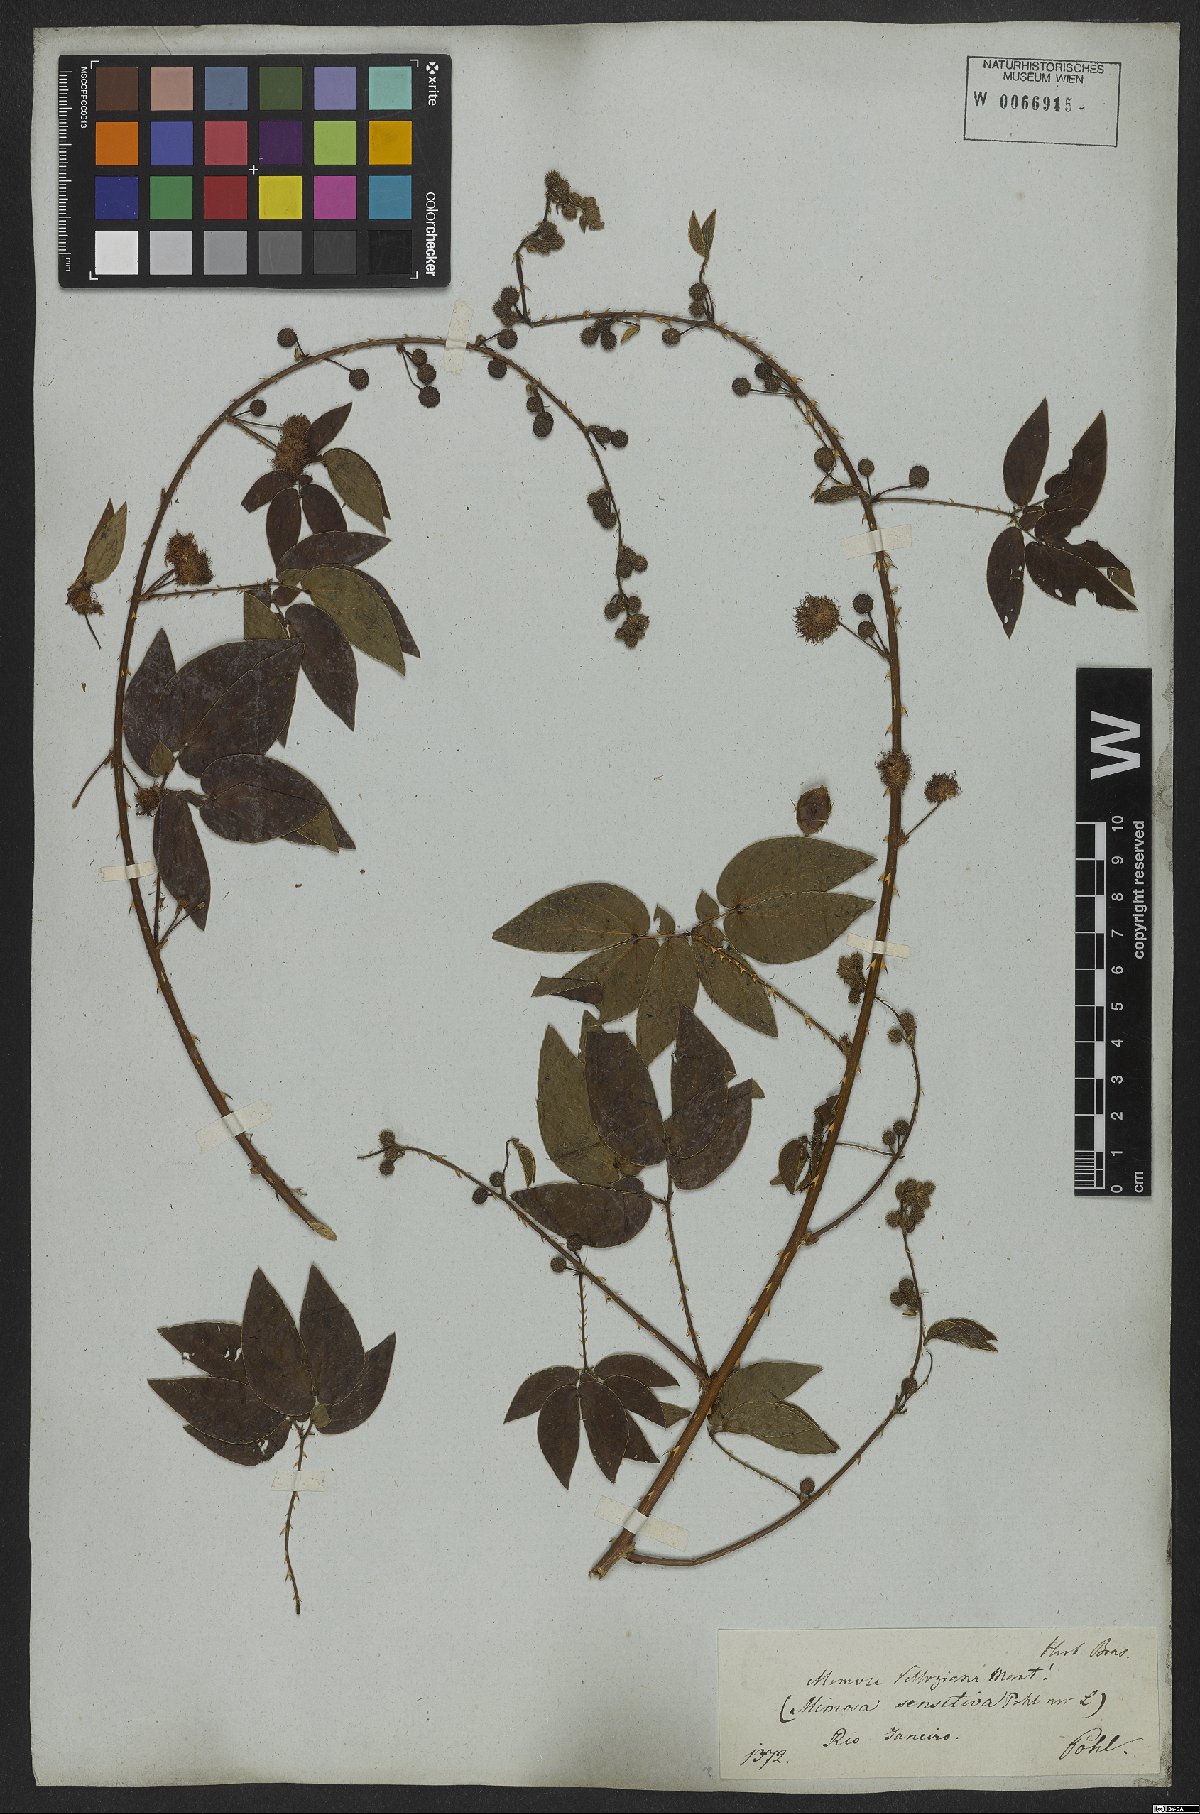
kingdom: Plantae
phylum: Tracheophyta
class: Magnoliopsida
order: Fabales
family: Fabaceae
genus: Mimosa
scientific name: Mimosa velloziana
